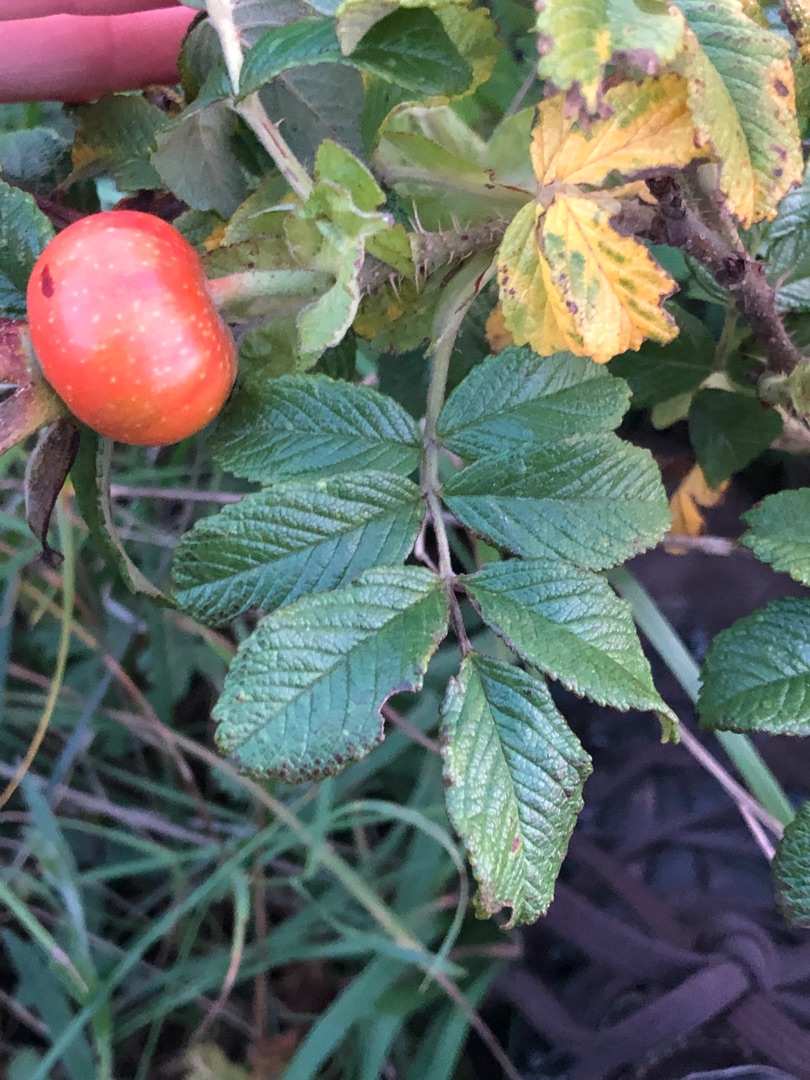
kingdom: Plantae
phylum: Tracheophyta
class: Magnoliopsida
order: Rosales
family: Rosaceae
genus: Rosa
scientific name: Rosa rugosa
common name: Rynket rose
